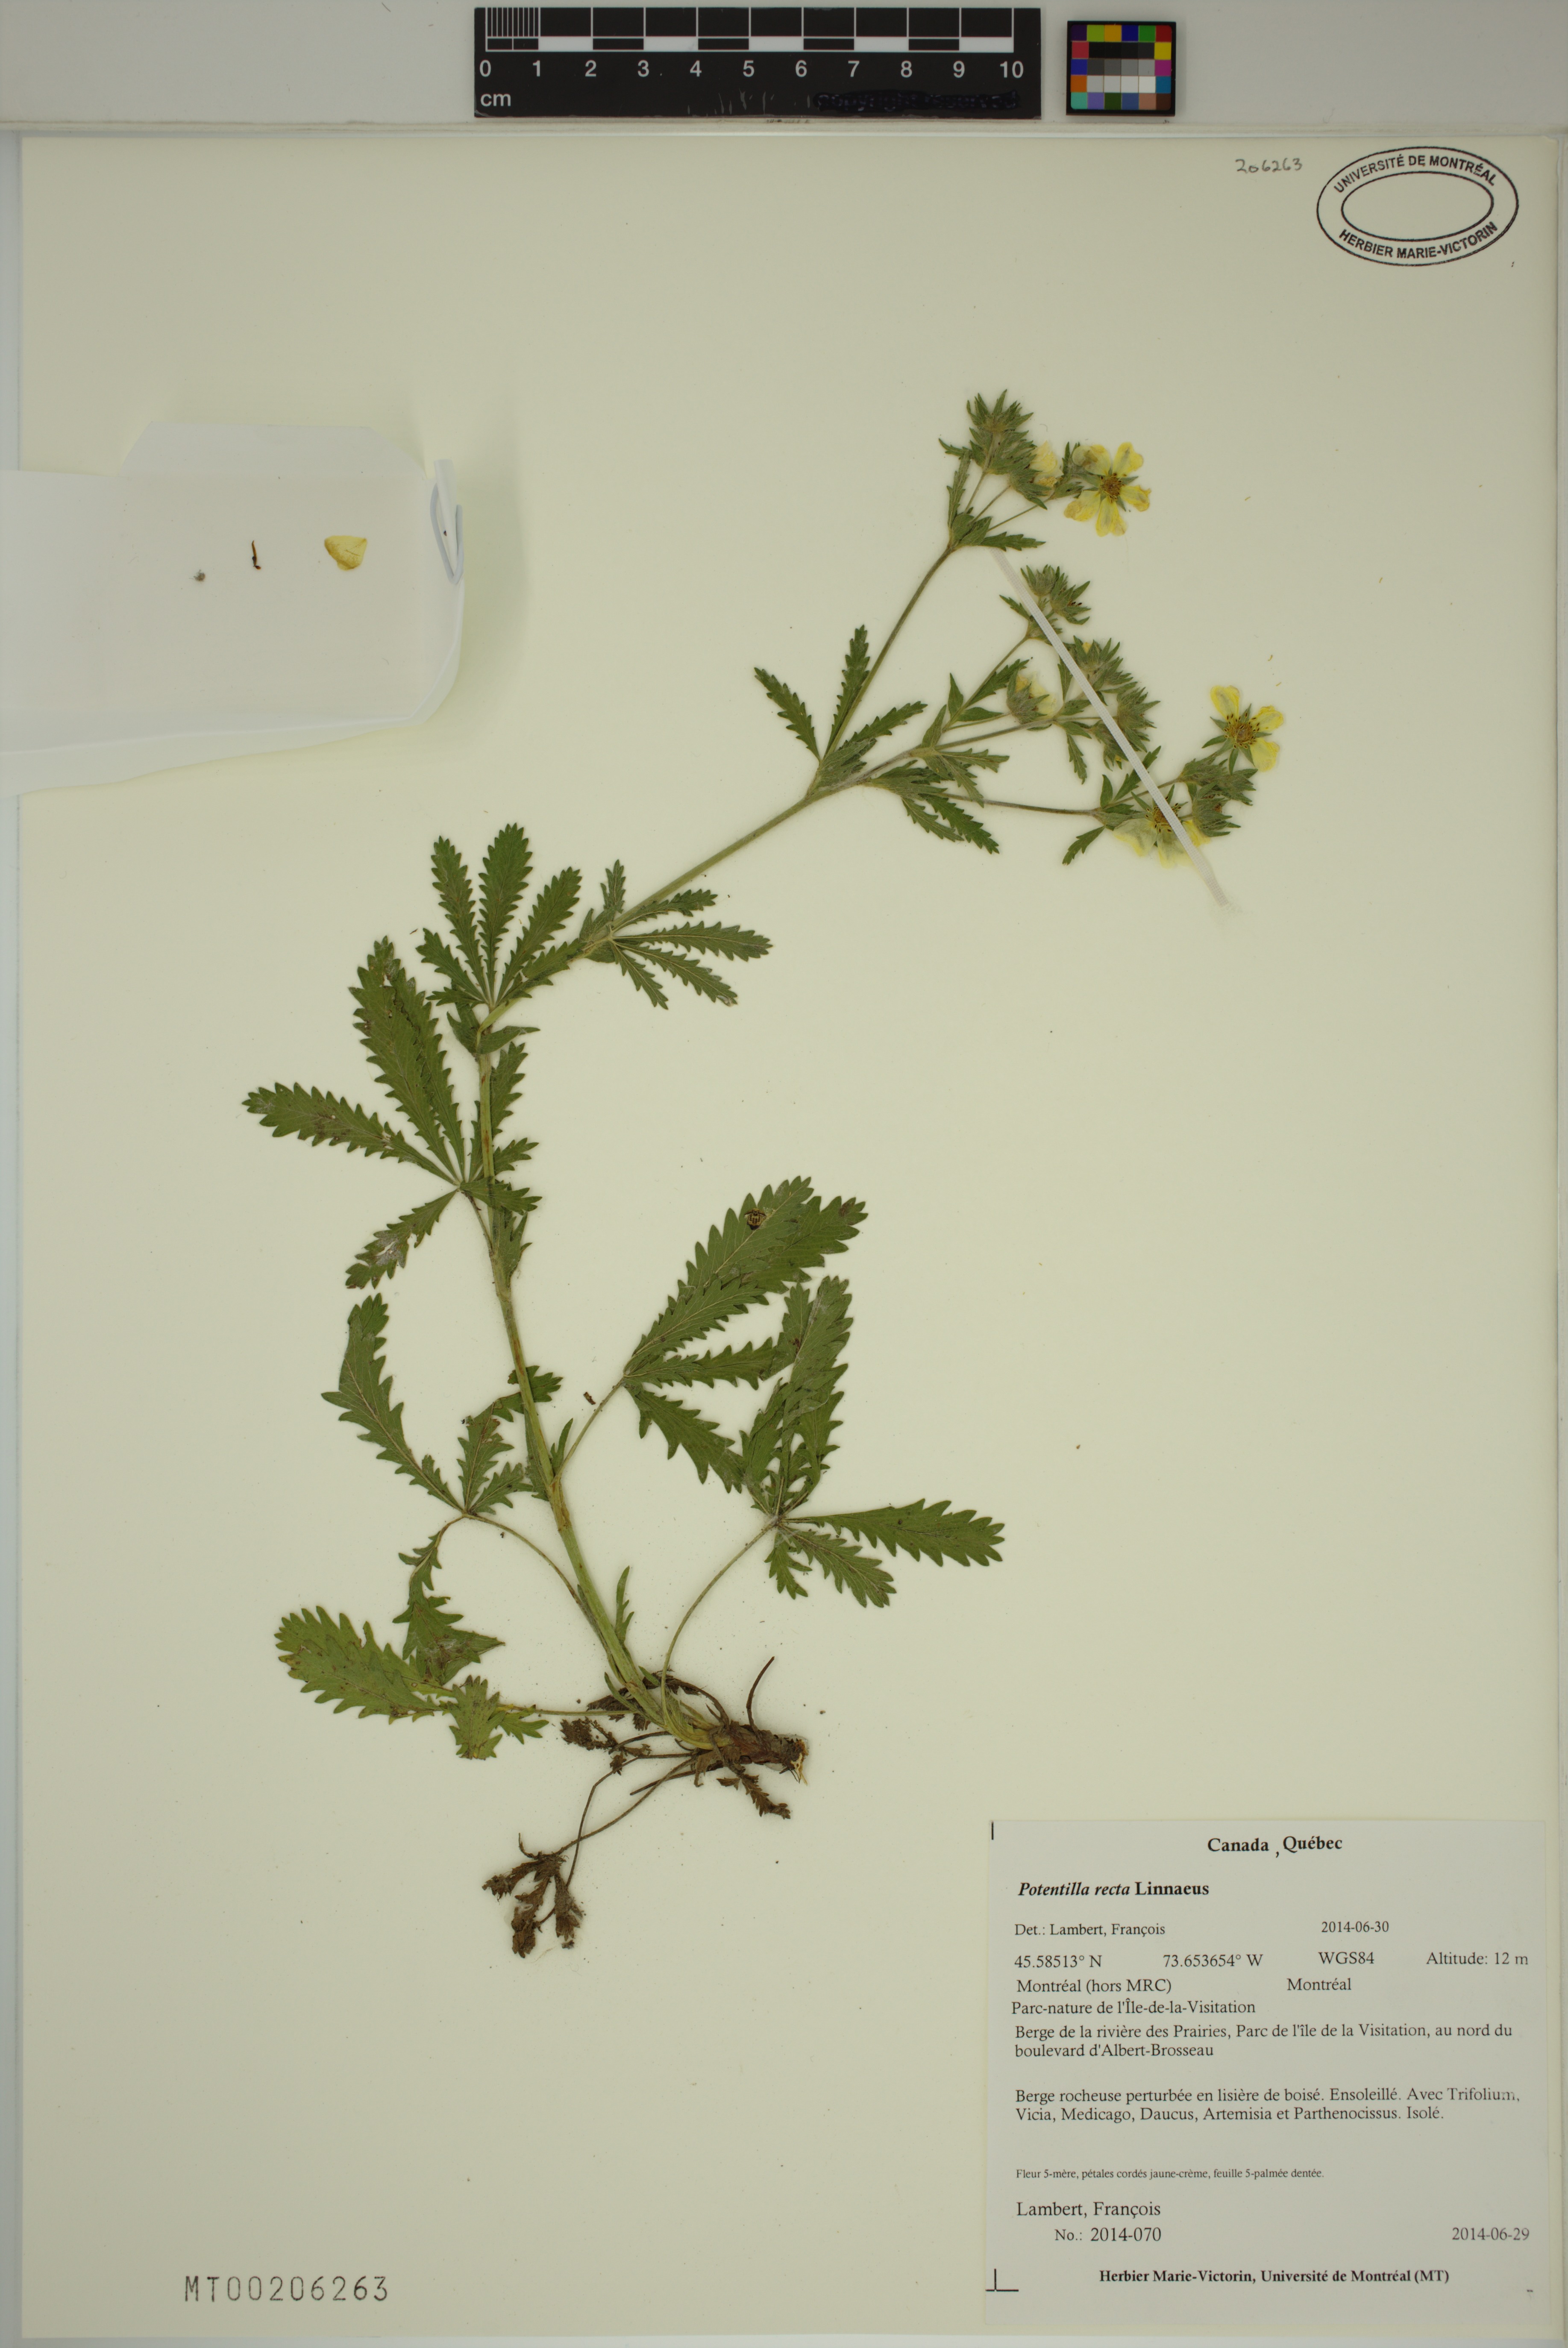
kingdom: Plantae
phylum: Tracheophyta
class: Magnoliopsida
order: Rosales
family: Rosaceae
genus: Potentilla
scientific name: Potentilla recta
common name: Sulphur cinquefoil
